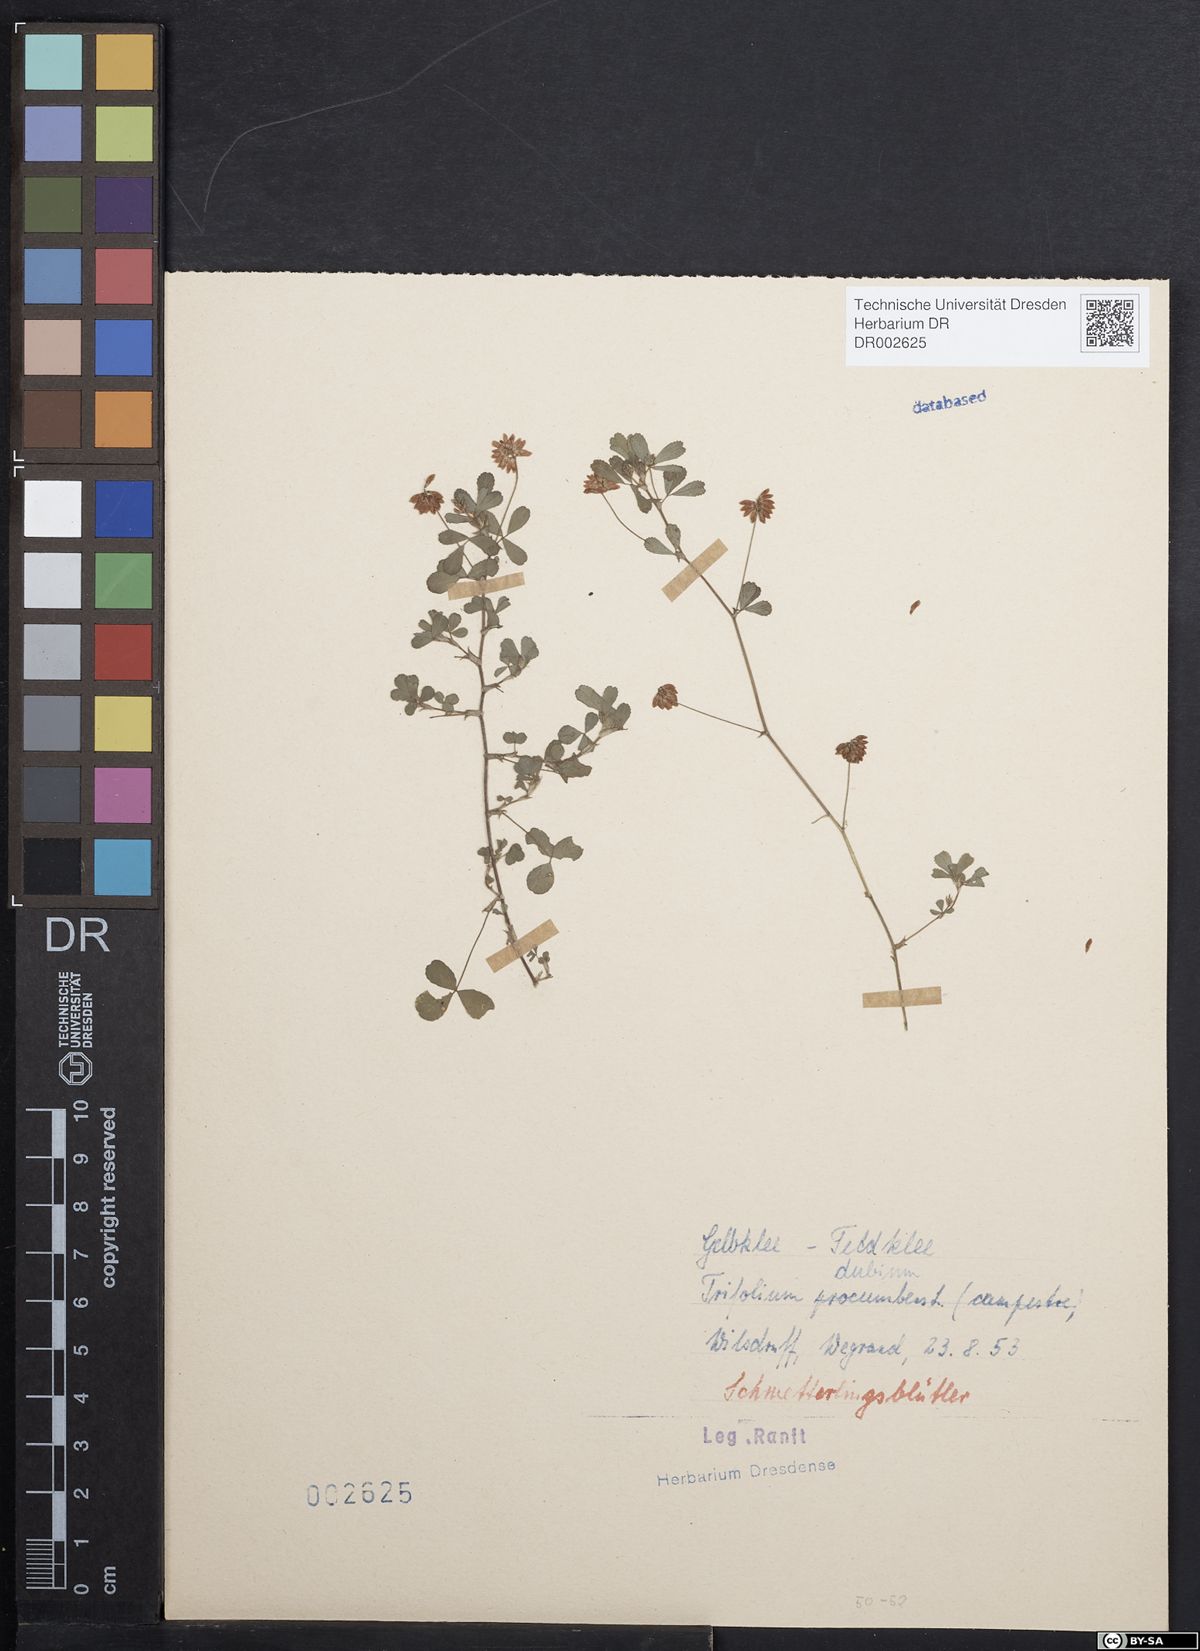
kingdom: Plantae
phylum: Tracheophyta
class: Magnoliopsida
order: Fabales
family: Fabaceae
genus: Trifolium
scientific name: Trifolium dubium
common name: Suckling clover
